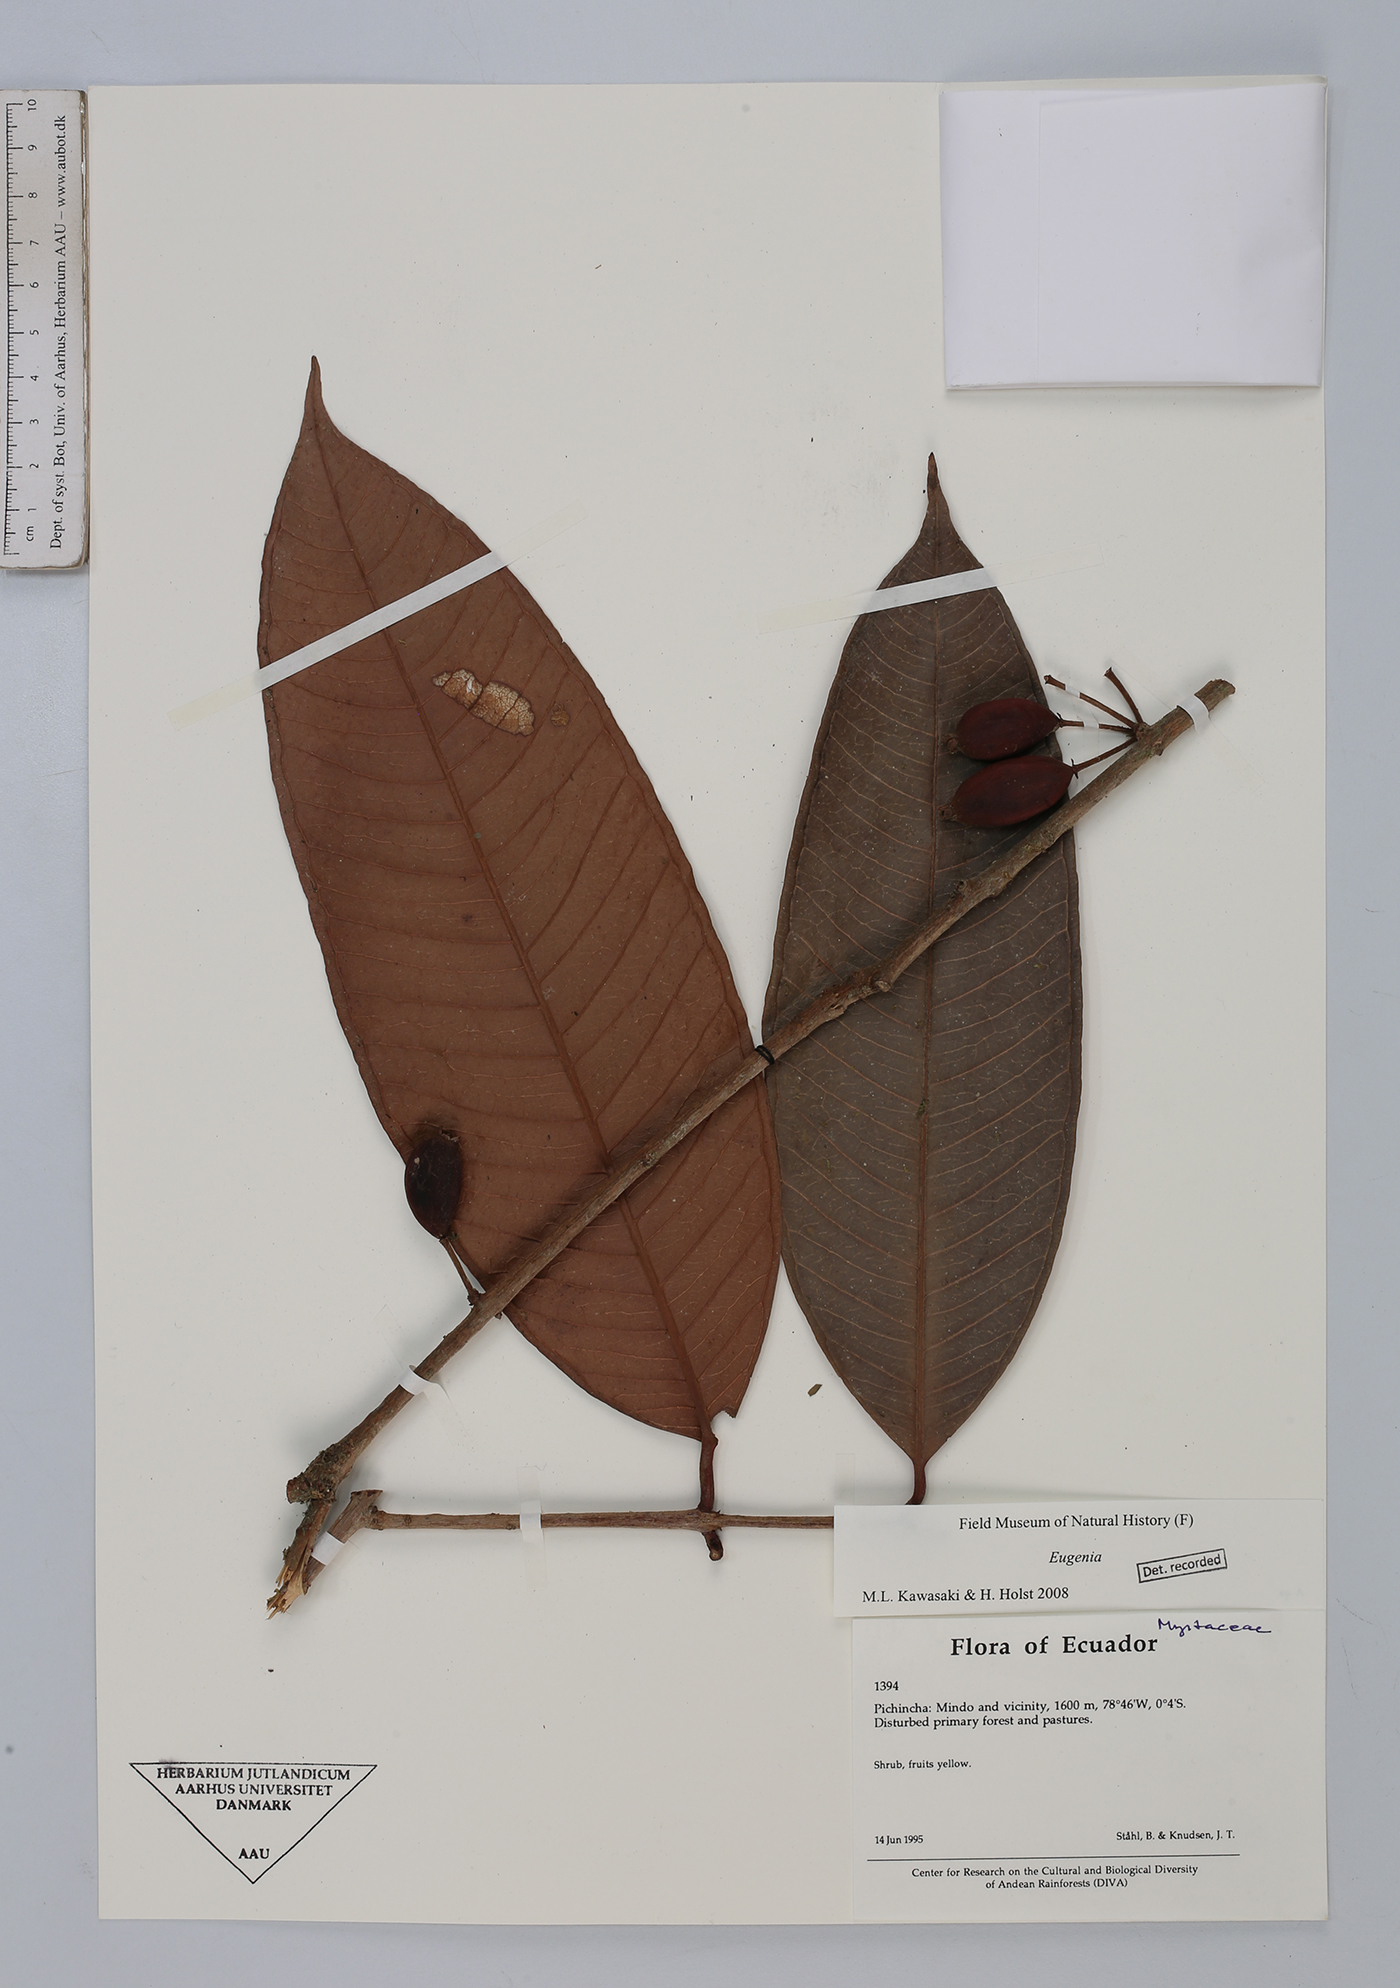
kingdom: Plantae
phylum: Tracheophyta
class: Magnoliopsida
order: Myrtales
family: Myrtaceae
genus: Eugenia
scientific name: Eugenia
